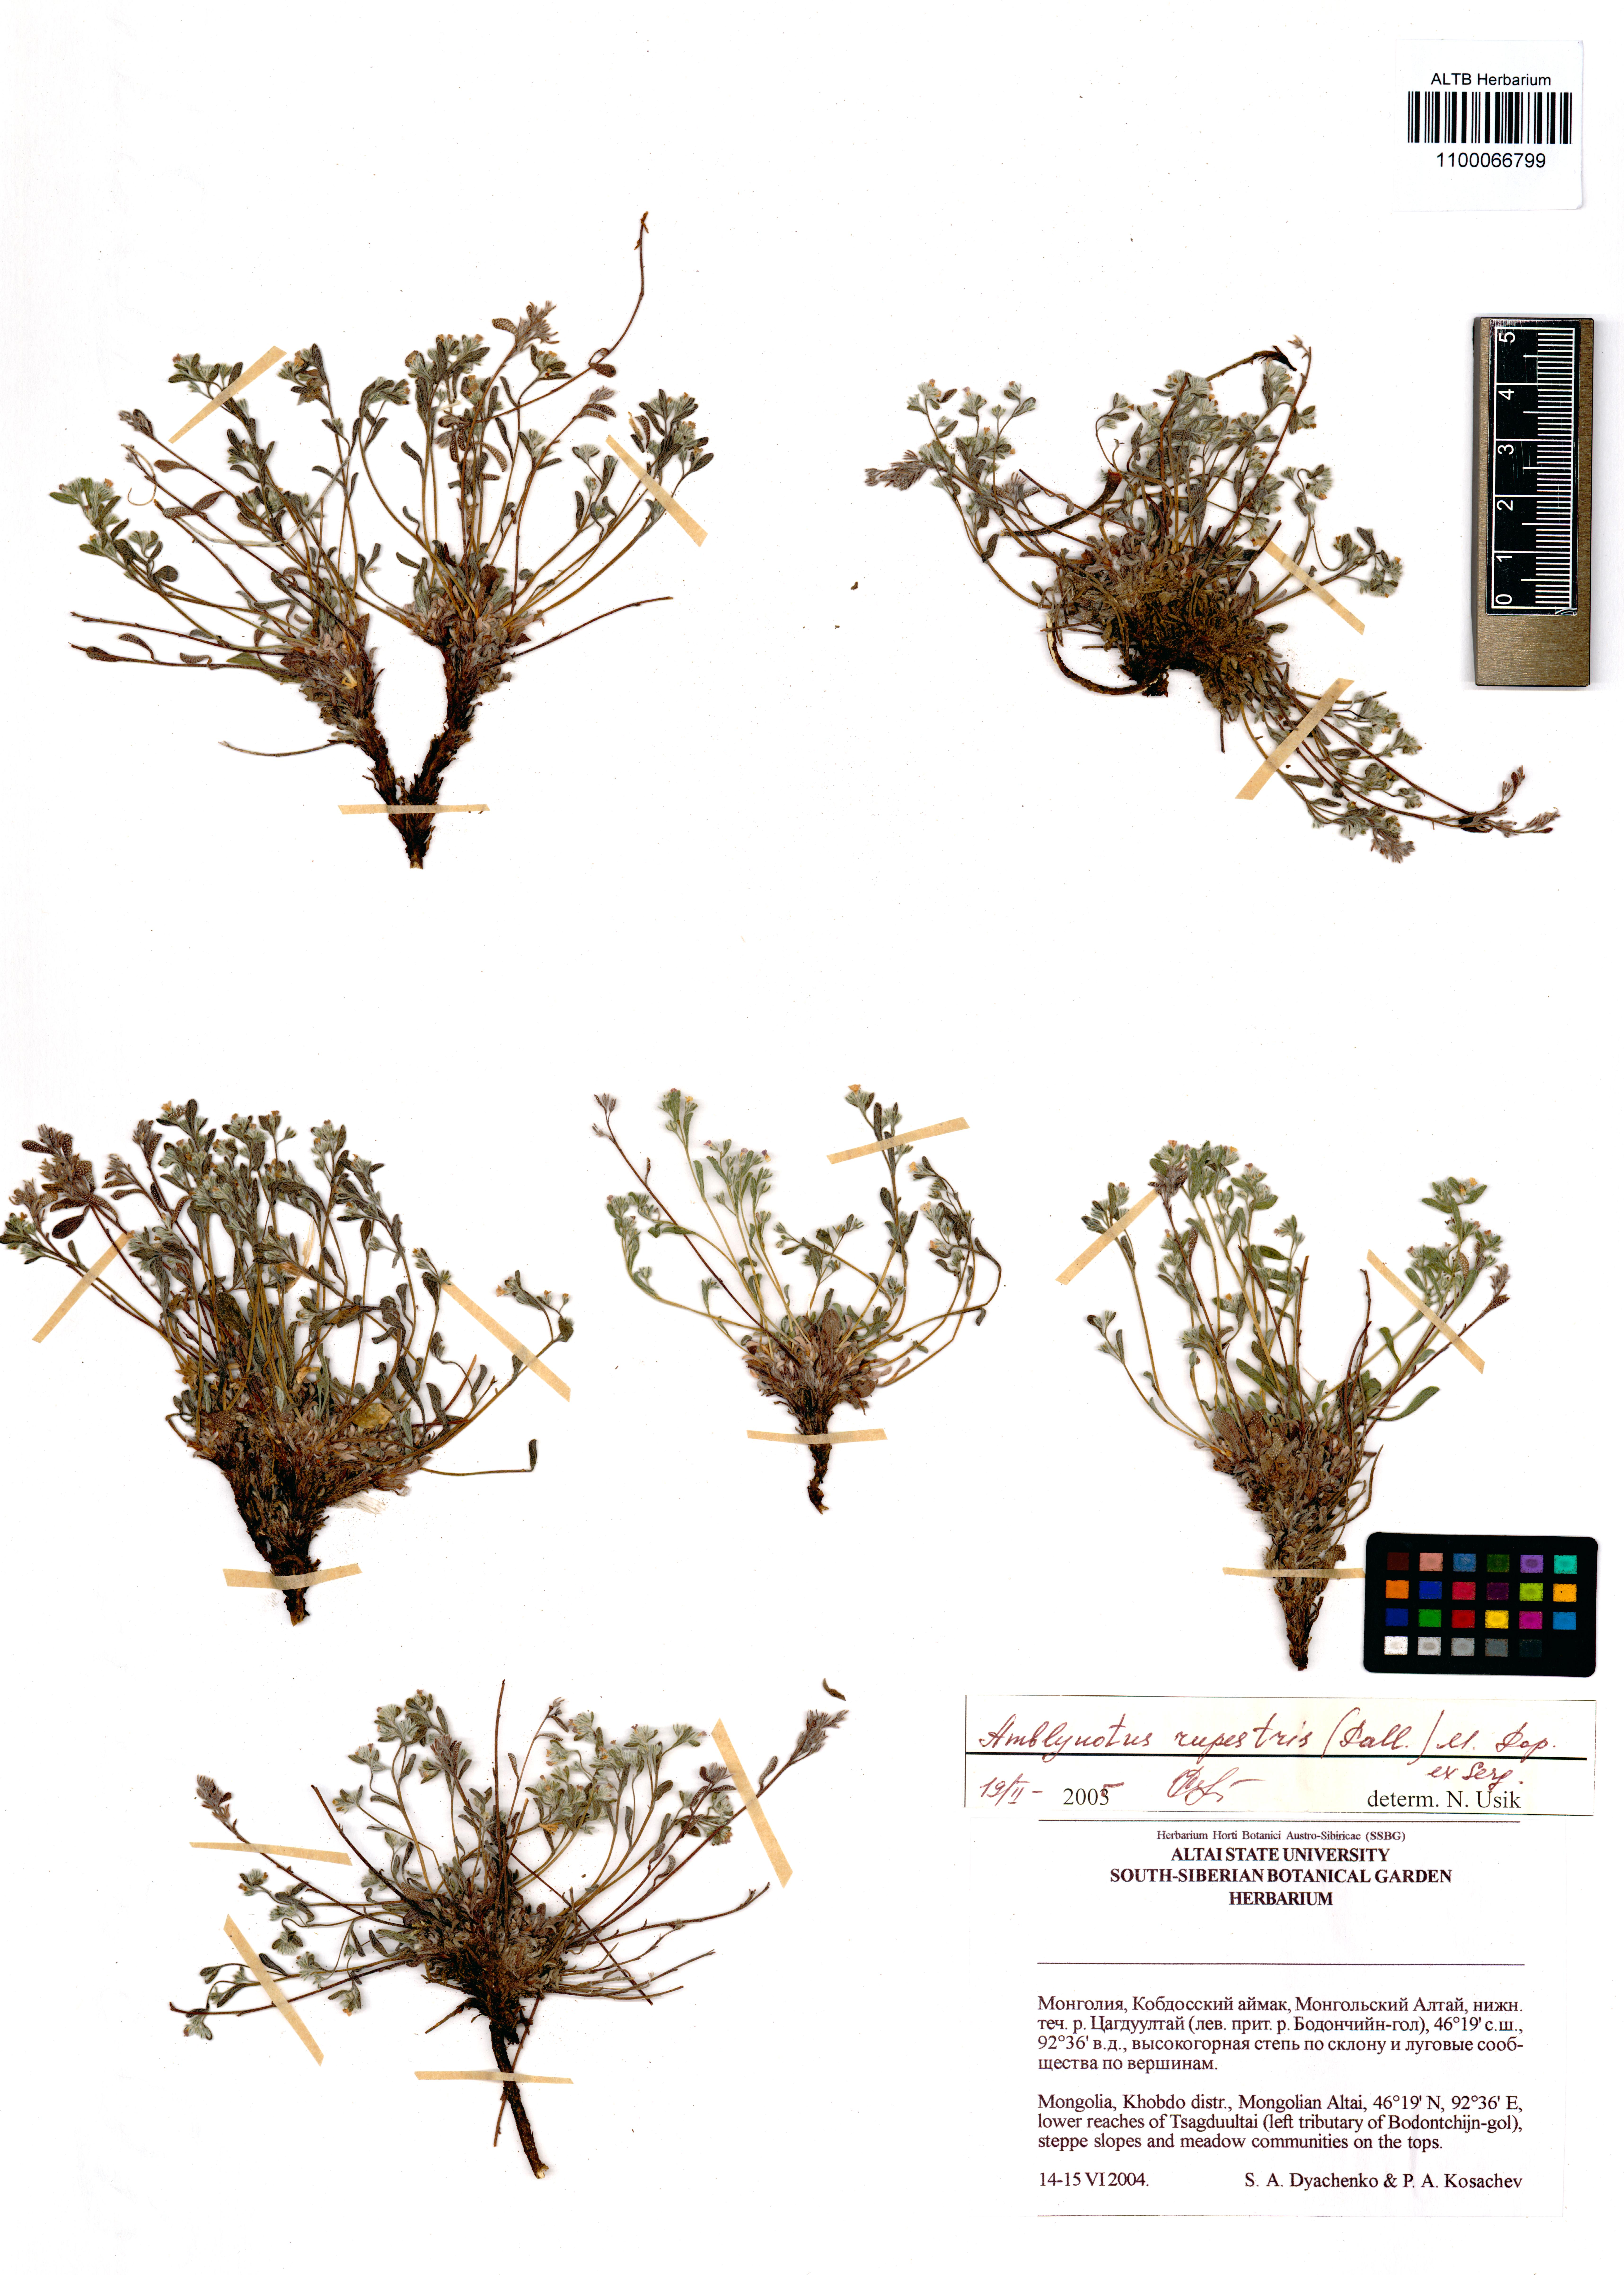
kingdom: Plantae
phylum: Tracheophyta
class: Magnoliopsida
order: Boraginales
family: Boraginaceae
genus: Eritrichium
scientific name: Eritrichium rupestre
